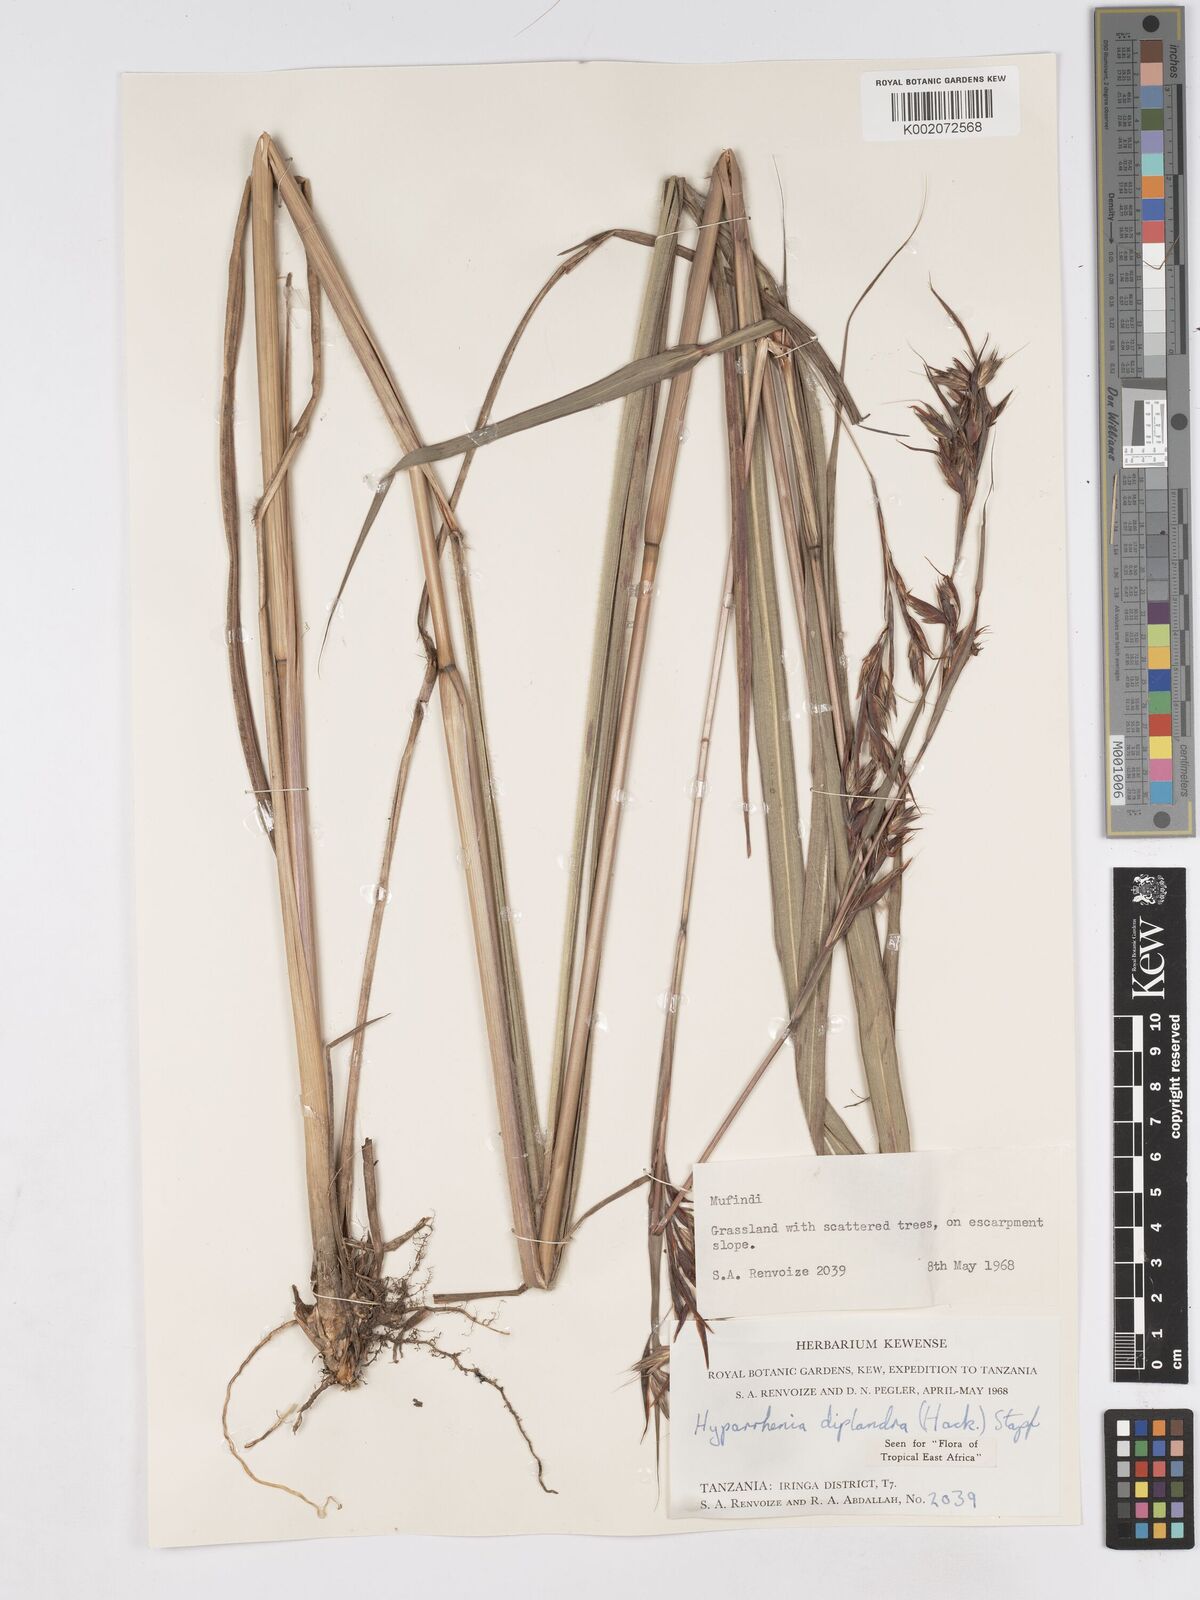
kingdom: Plantae
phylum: Tracheophyta
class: Liliopsida
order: Poales
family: Poaceae
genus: Hyparrhenia
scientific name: Hyparrhenia diplandra
